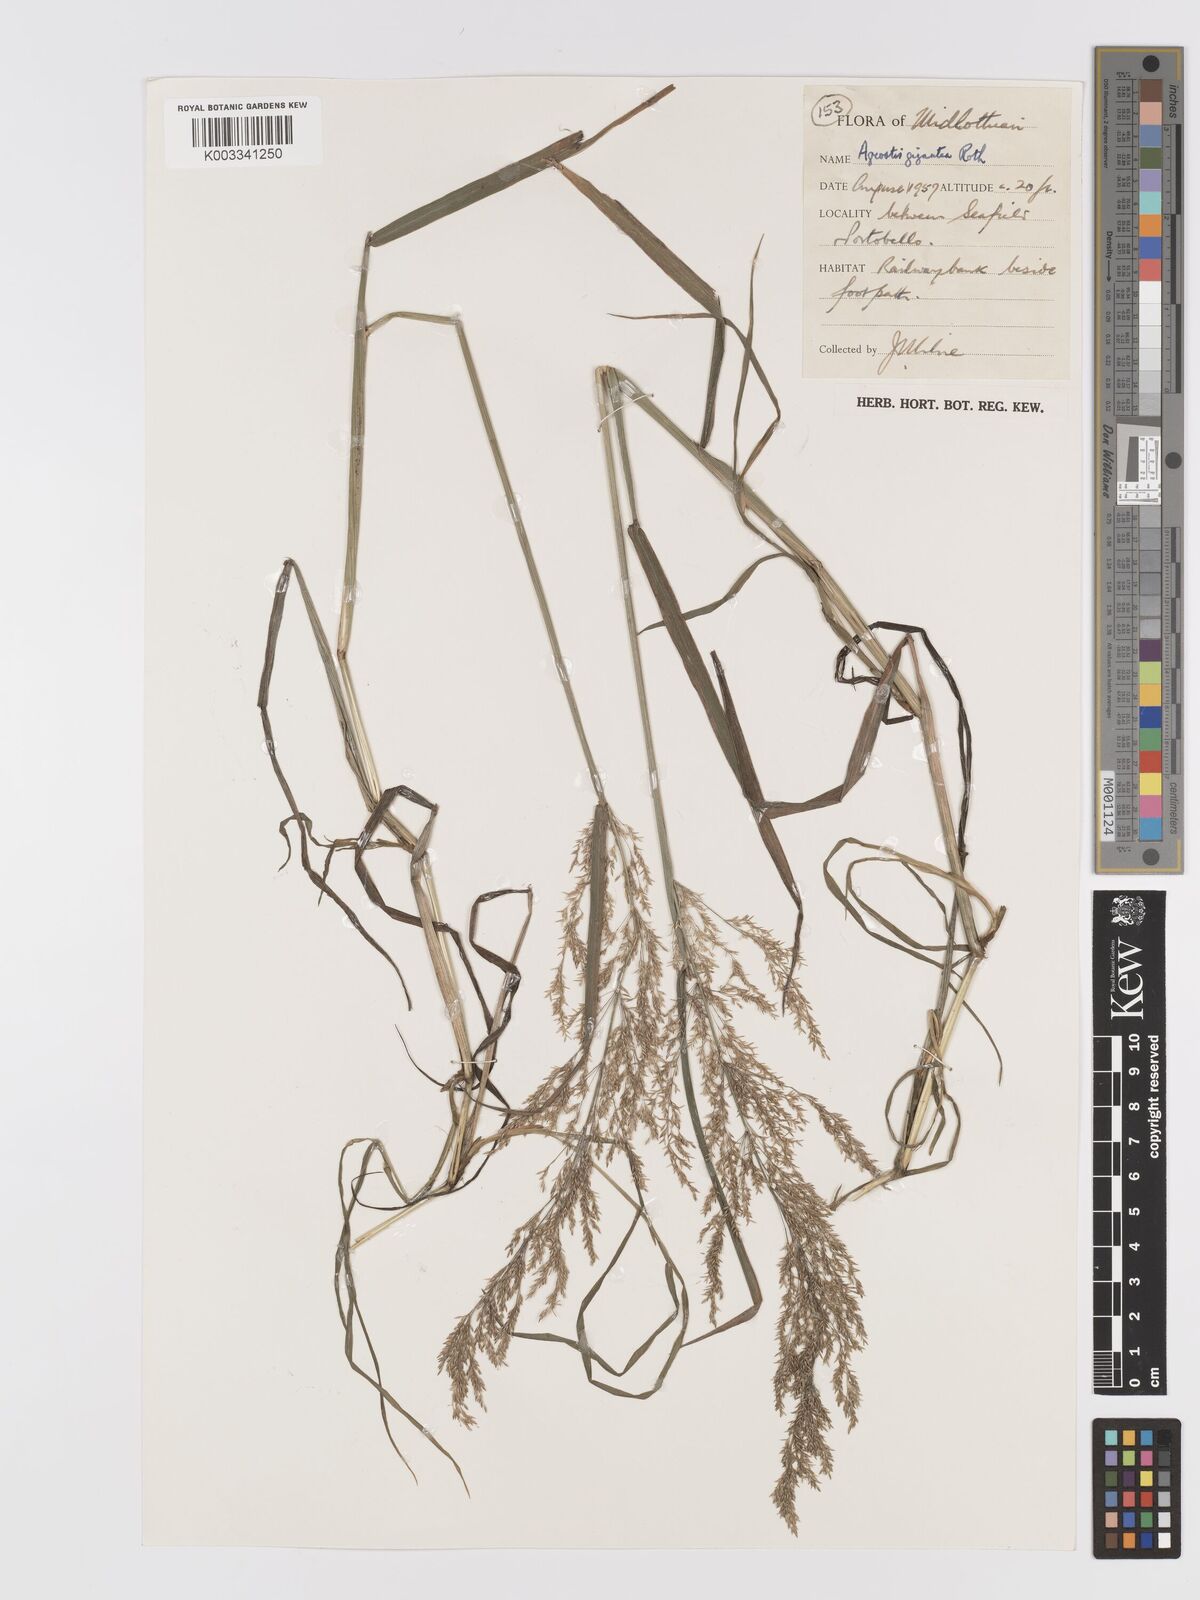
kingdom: Plantae
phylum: Tracheophyta
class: Liliopsida
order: Poales
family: Poaceae
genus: Agrostis
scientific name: Agrostis gigantea
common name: Black bent
